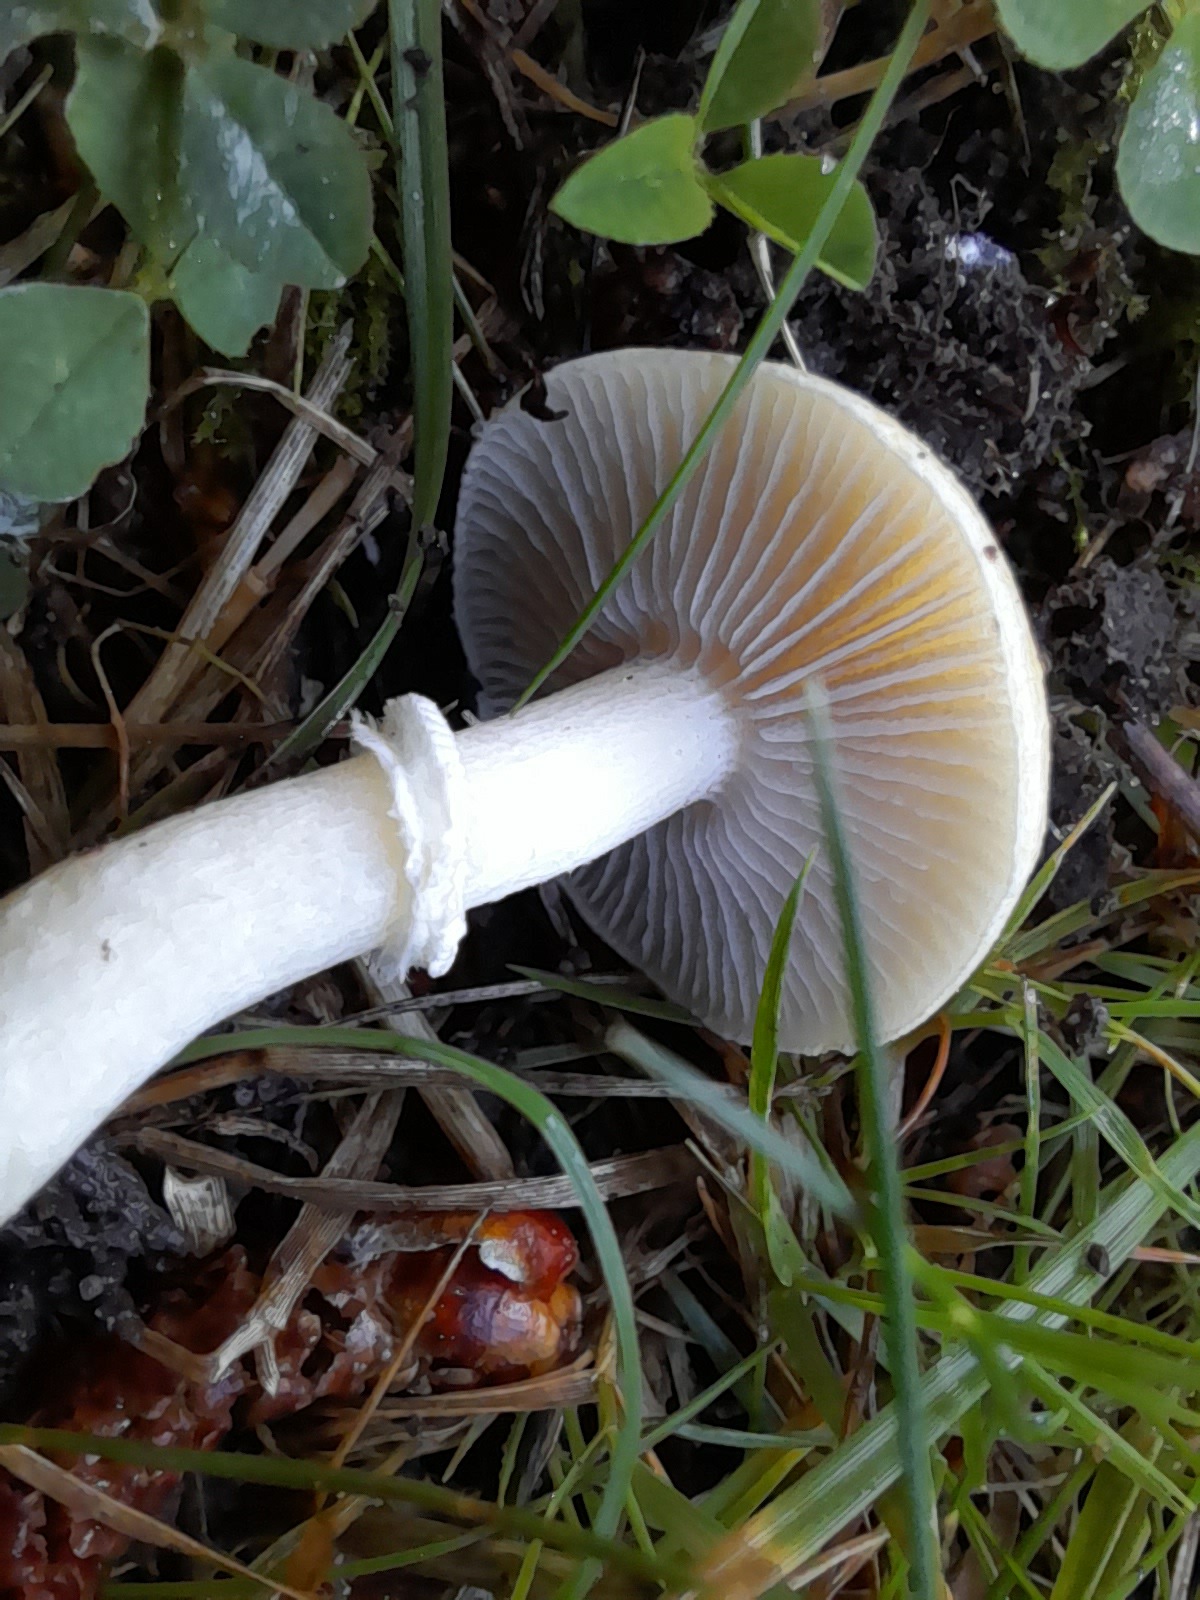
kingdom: Fungi
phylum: Basidiomycota
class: Agaricomycetes
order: Agaricales
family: Hymenogastraceae
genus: Psilocybe
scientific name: Psilocybe coronilla
